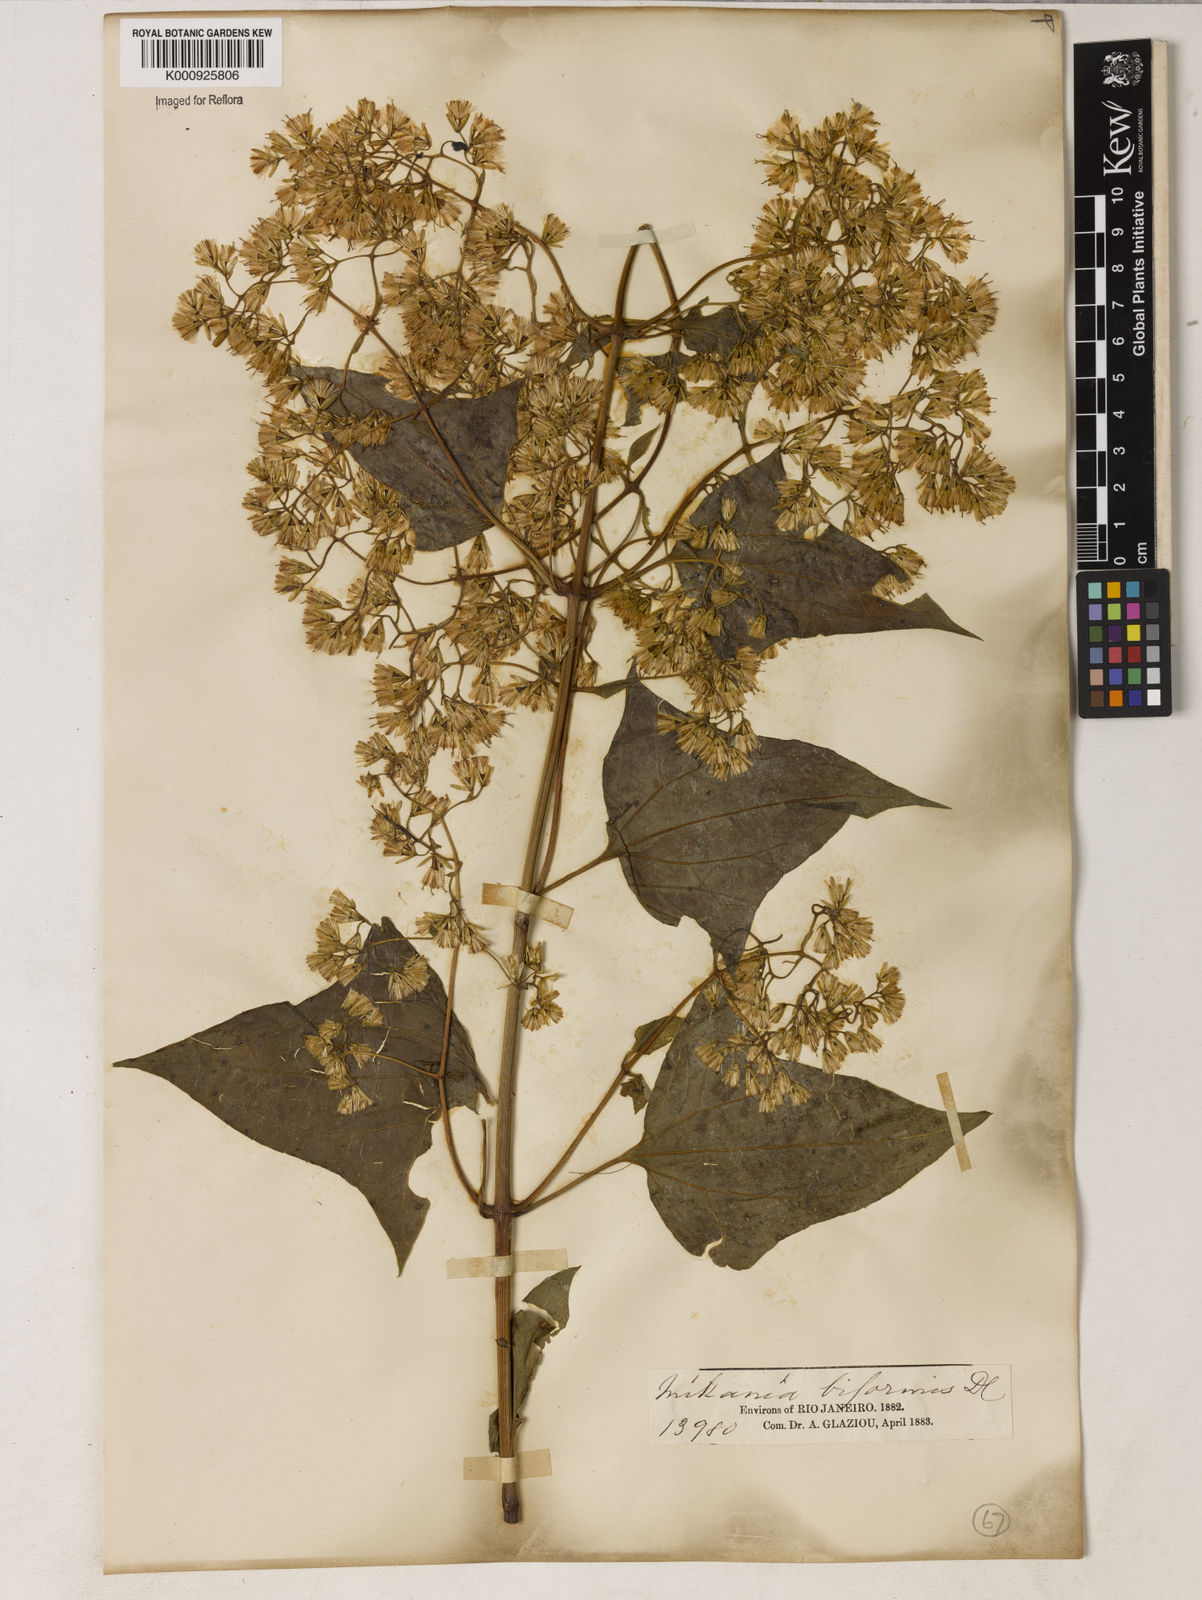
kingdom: Plantae
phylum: Tracheophyta
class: Magnoliopsida
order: Asterales
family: Asteraceae
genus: Mikania
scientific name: Mikania biformis
